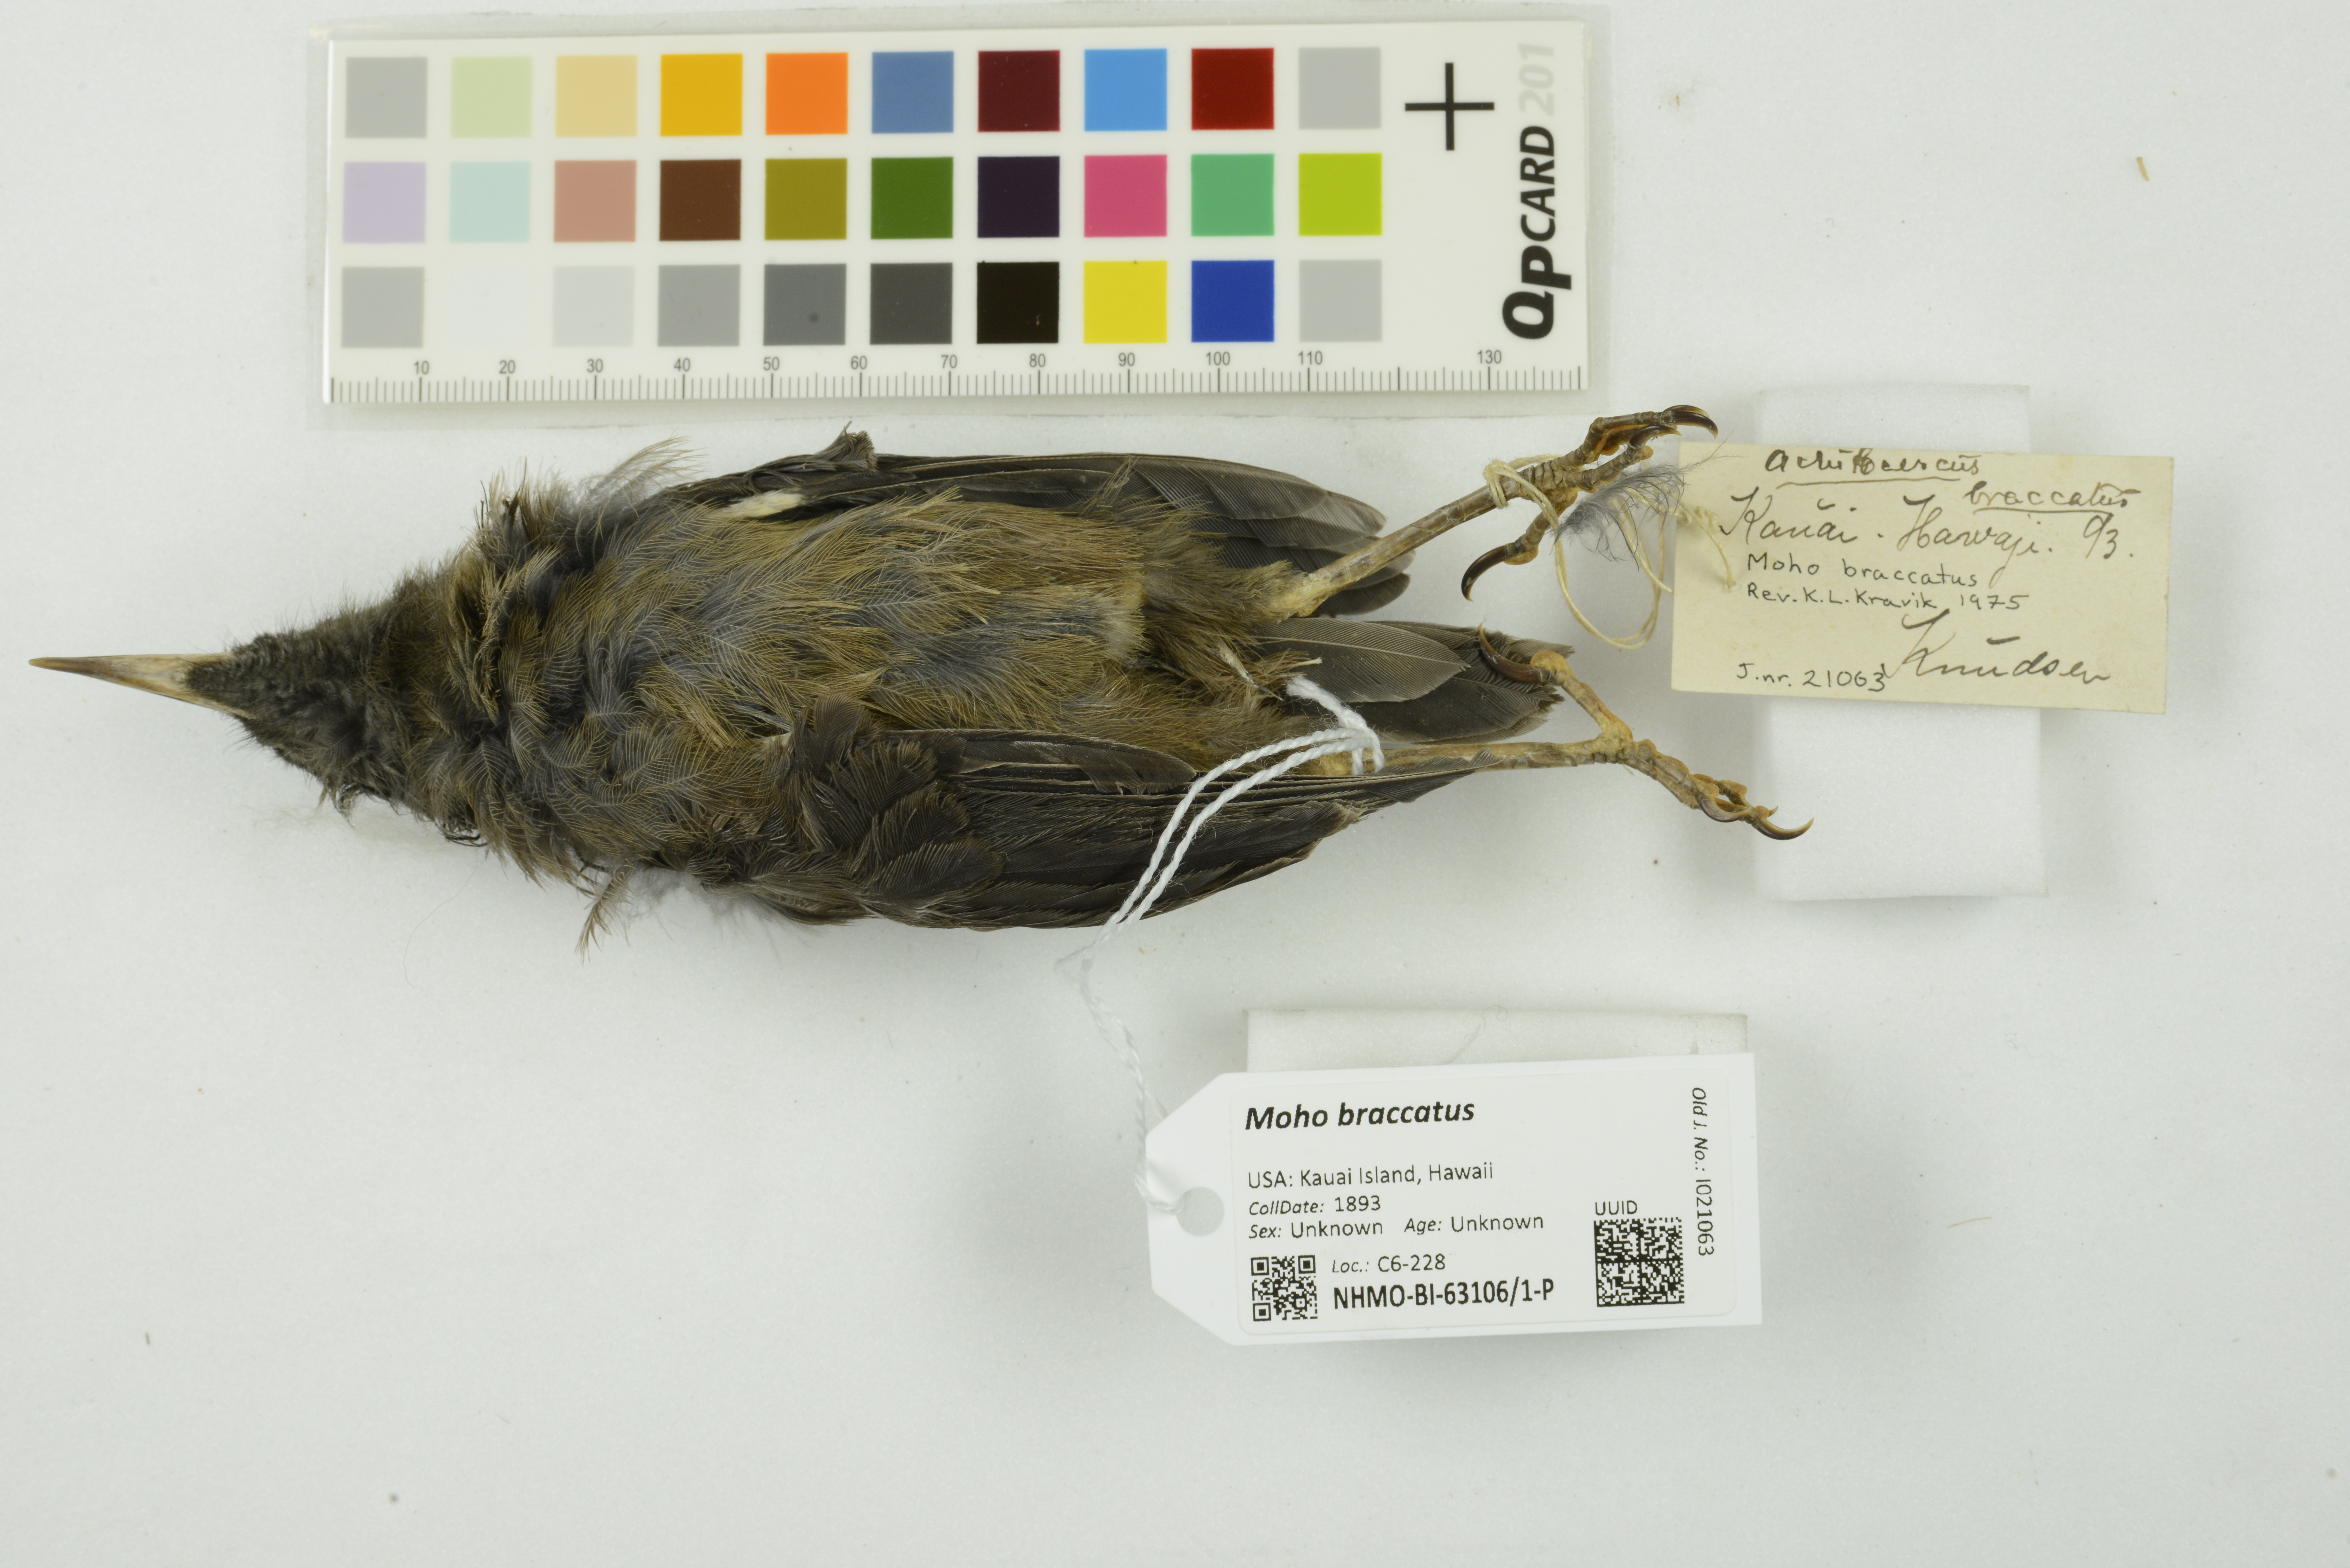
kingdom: Animalia
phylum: Chordata
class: Aves
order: Passeriformes
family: Mohoidae
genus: Moho
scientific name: Moho braccatus
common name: Kauai oo
